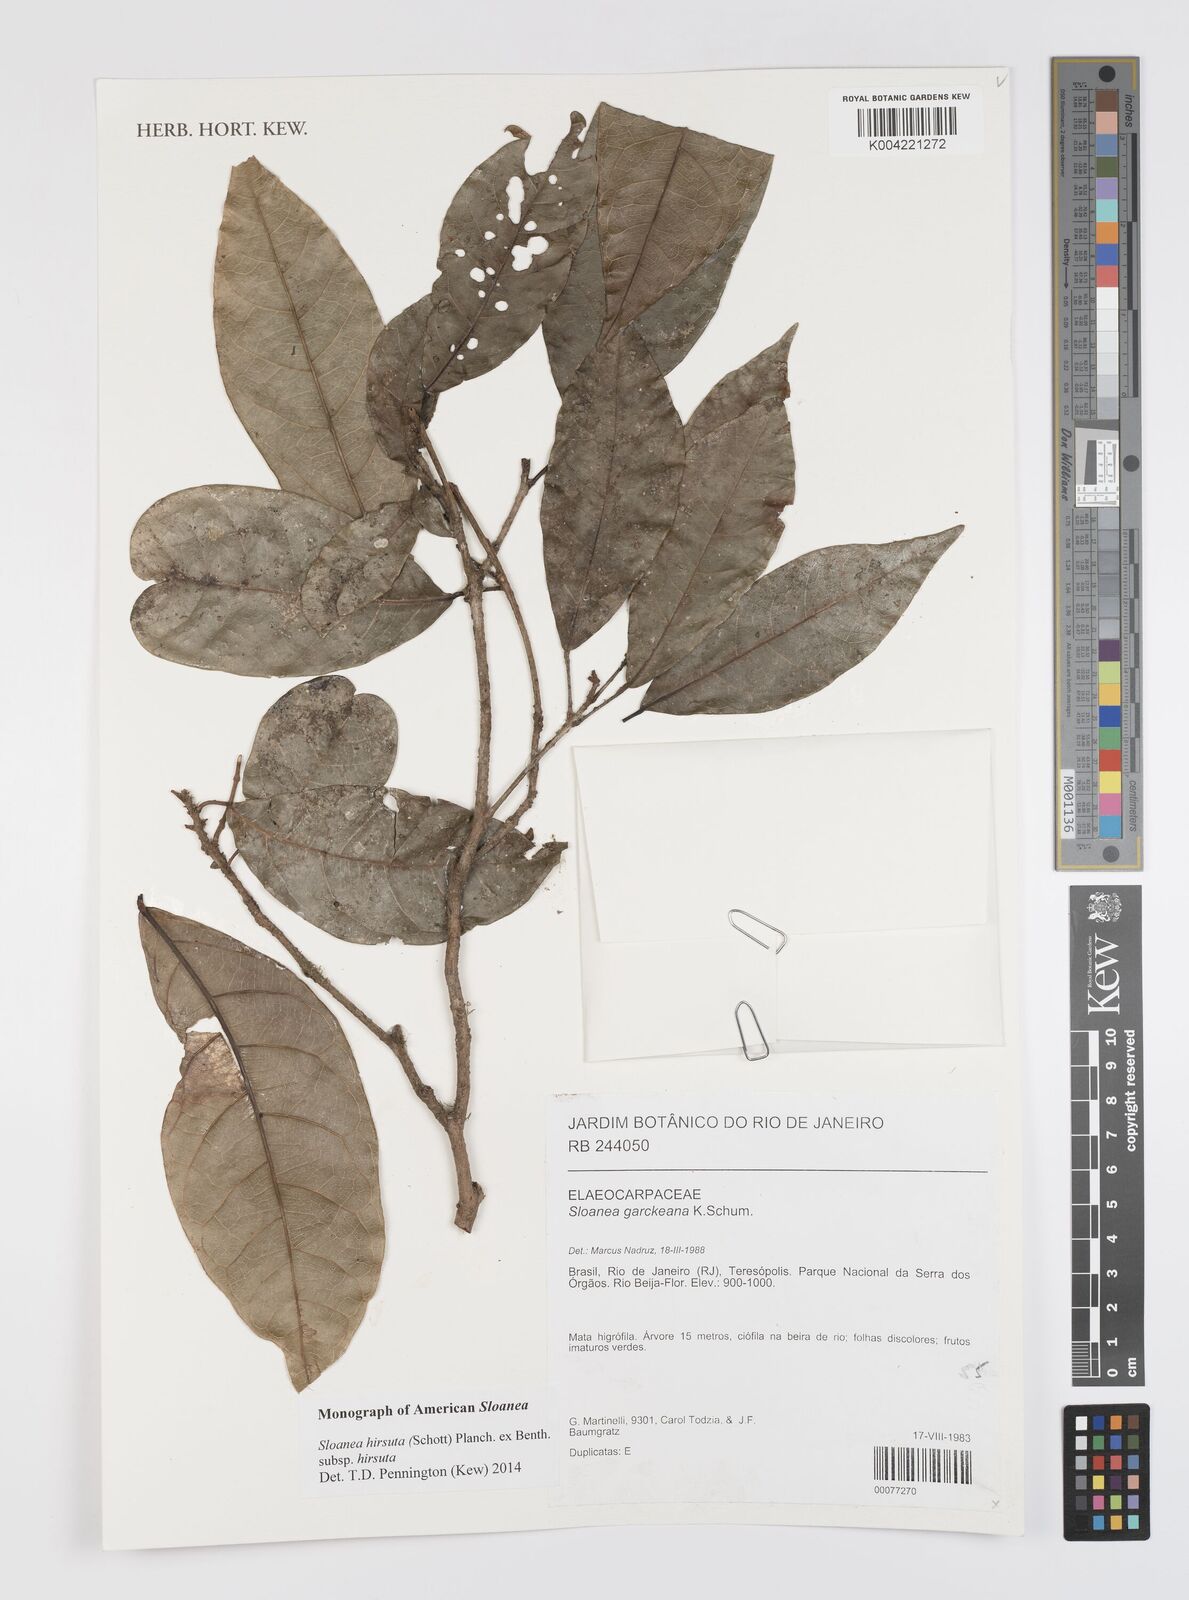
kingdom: Plantae
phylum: Tracheophyta
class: Magnoliopsida
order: Oxalidales
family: Elaeocarpaceae
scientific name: Elaeocarpaceae
